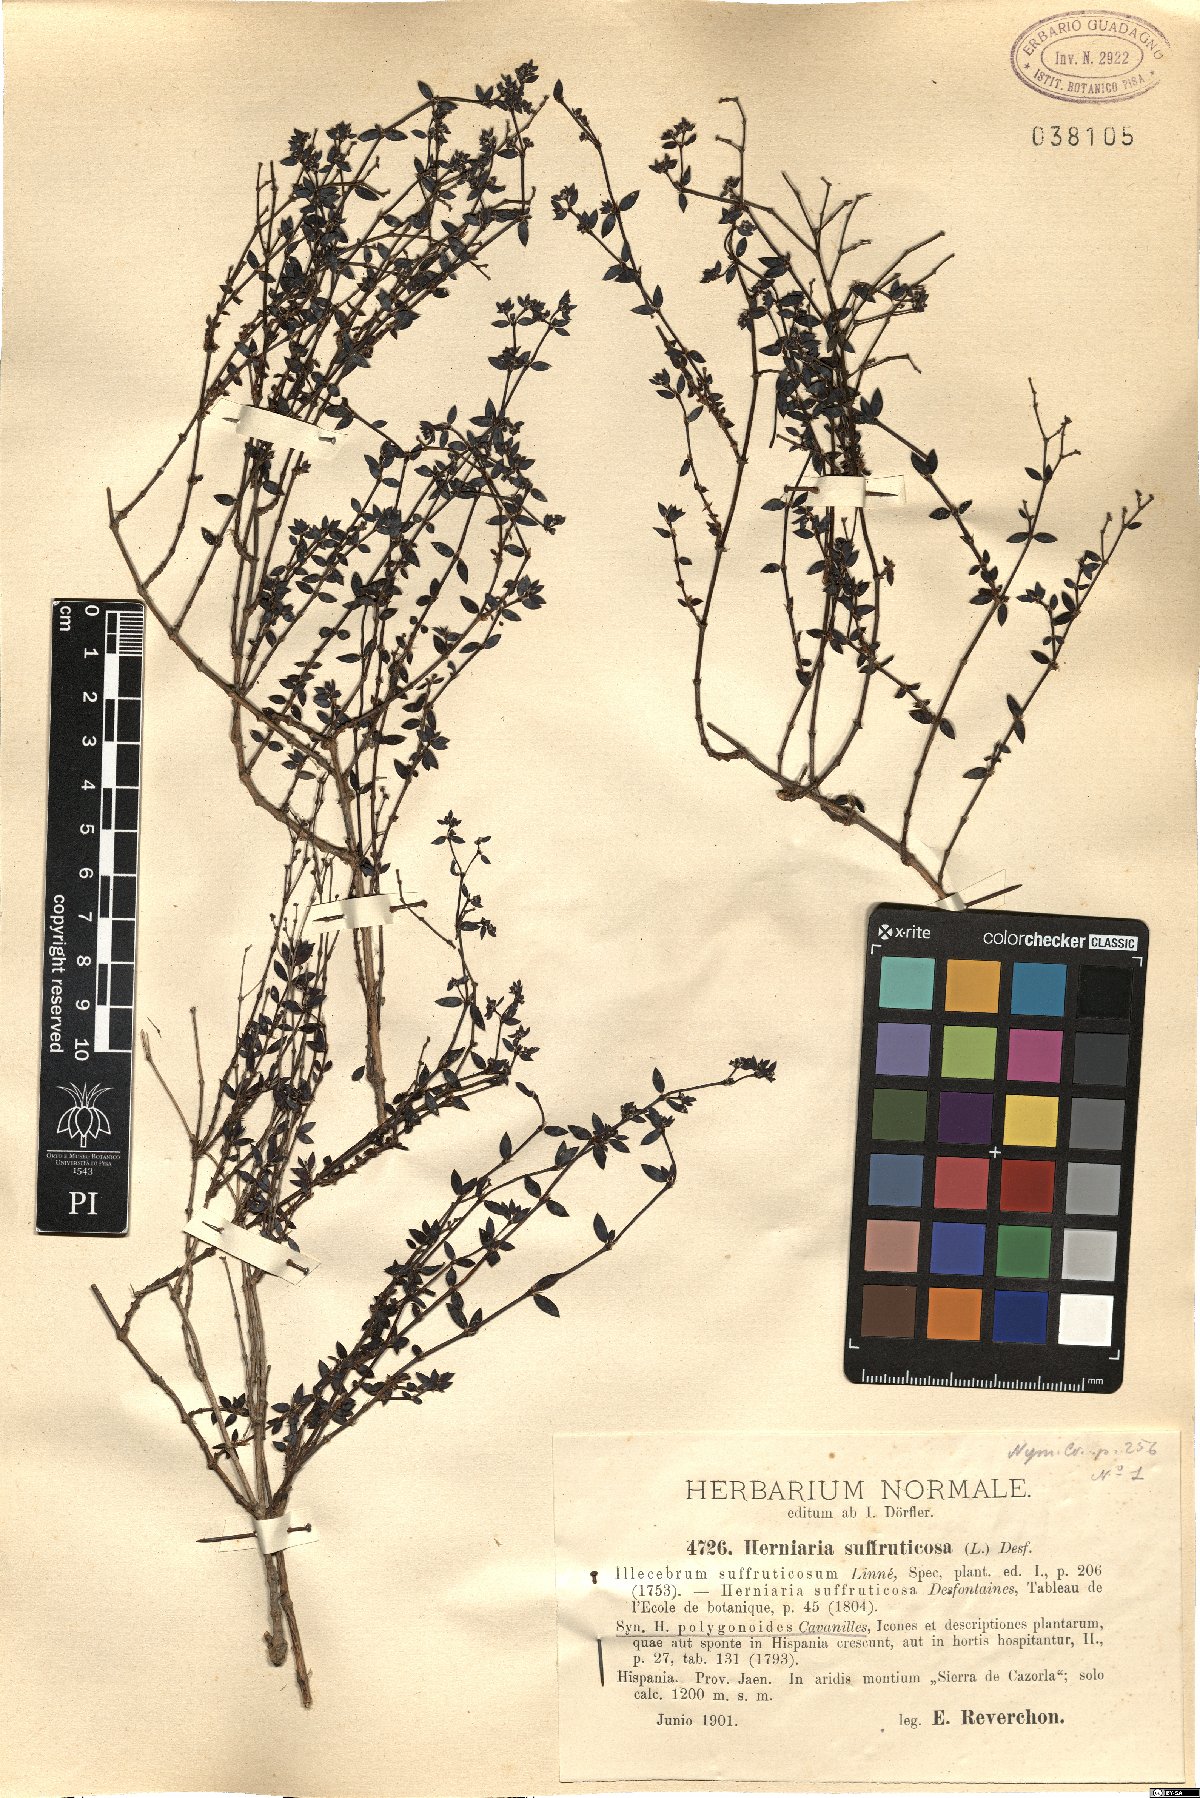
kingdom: Plantae
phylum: Tracheophyta
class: Magnoliopsida
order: Caryophyllales
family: Caryophyllaceae
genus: Paronychia
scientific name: Paronychia suffruticosa
